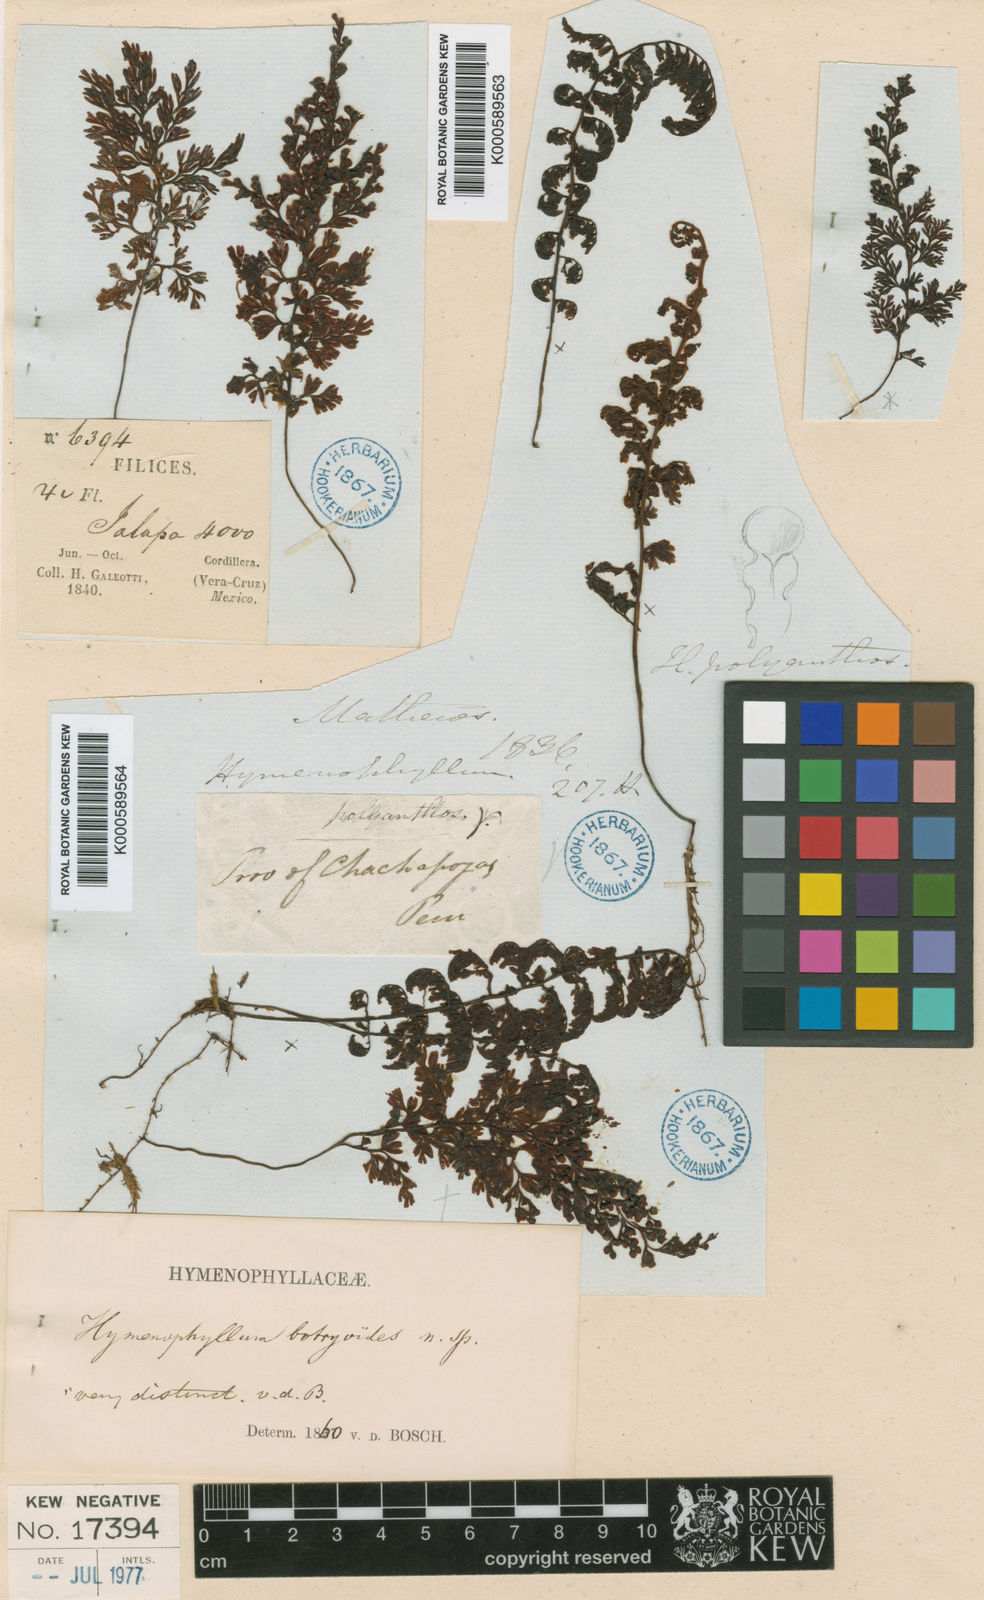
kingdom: Plantae
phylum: Tracheophyta
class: Polypodiopsida
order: Hymenophyllales
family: Hymenophyllaceae
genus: Hymenophyllum
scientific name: Hymenophyllum polyanthos
